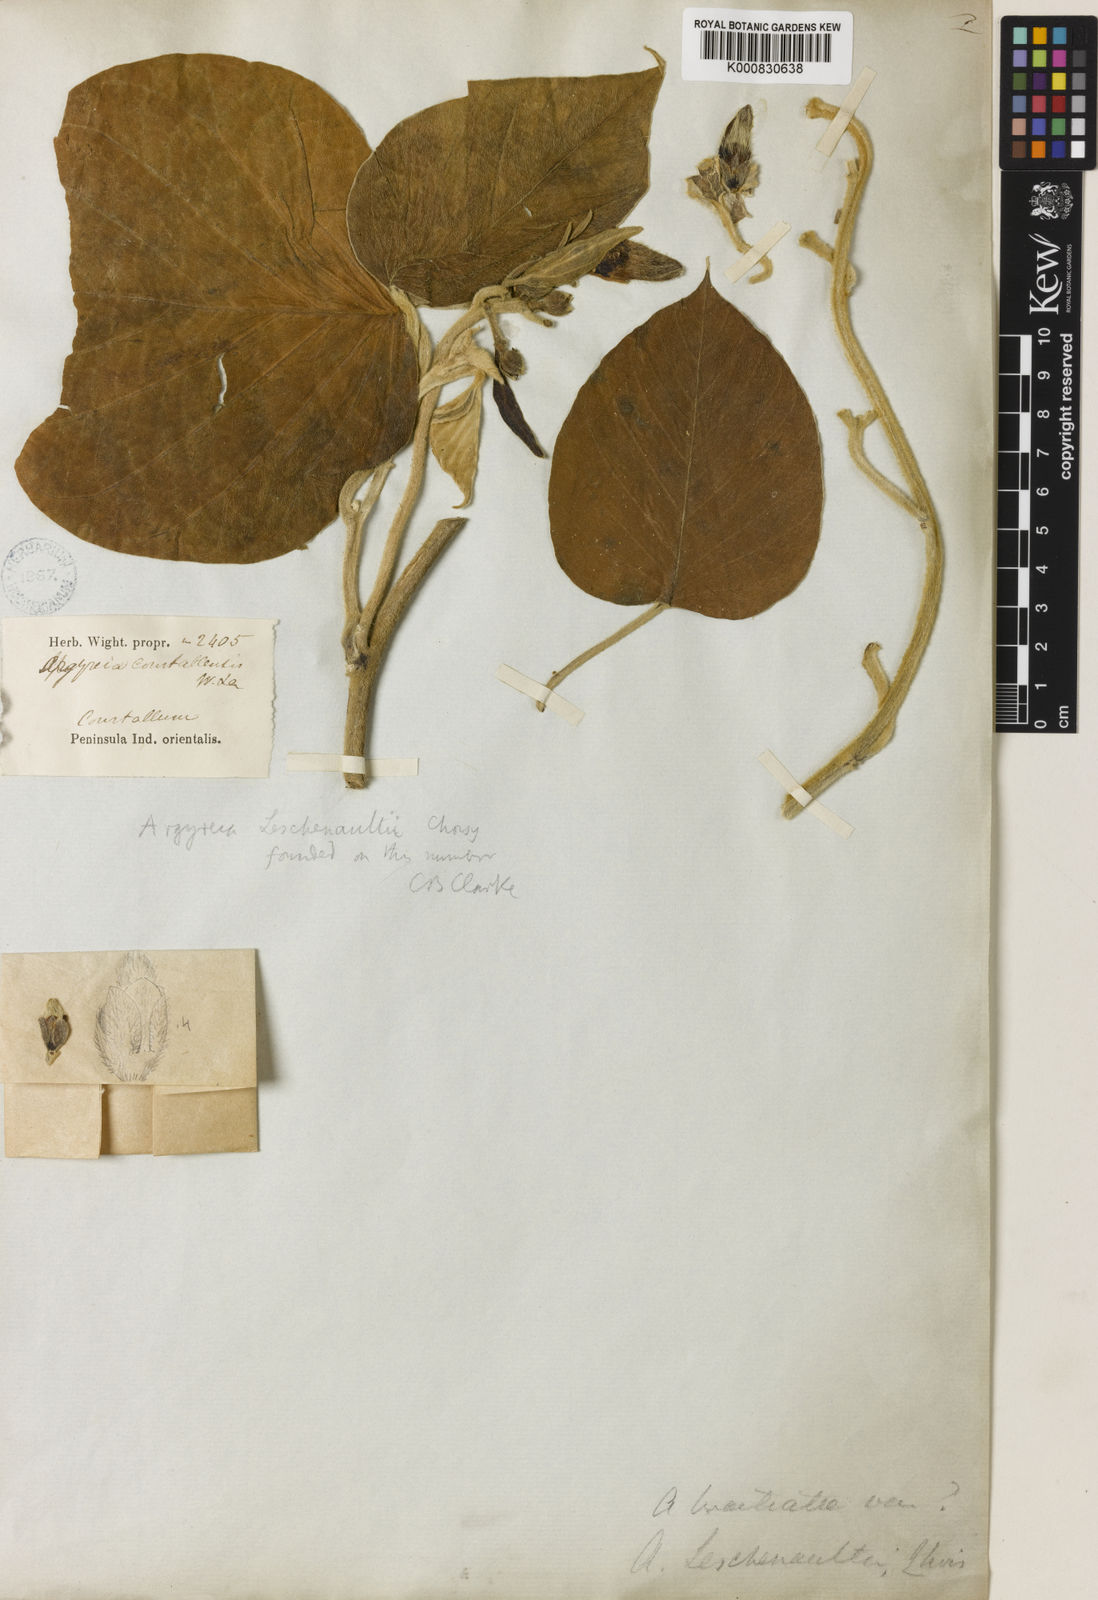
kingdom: Plantae
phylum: Tracheophyta
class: Magnoliopsida
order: Solanales
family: Convolvulaceae
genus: Argyreia
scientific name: Argyreia leschenaultii
